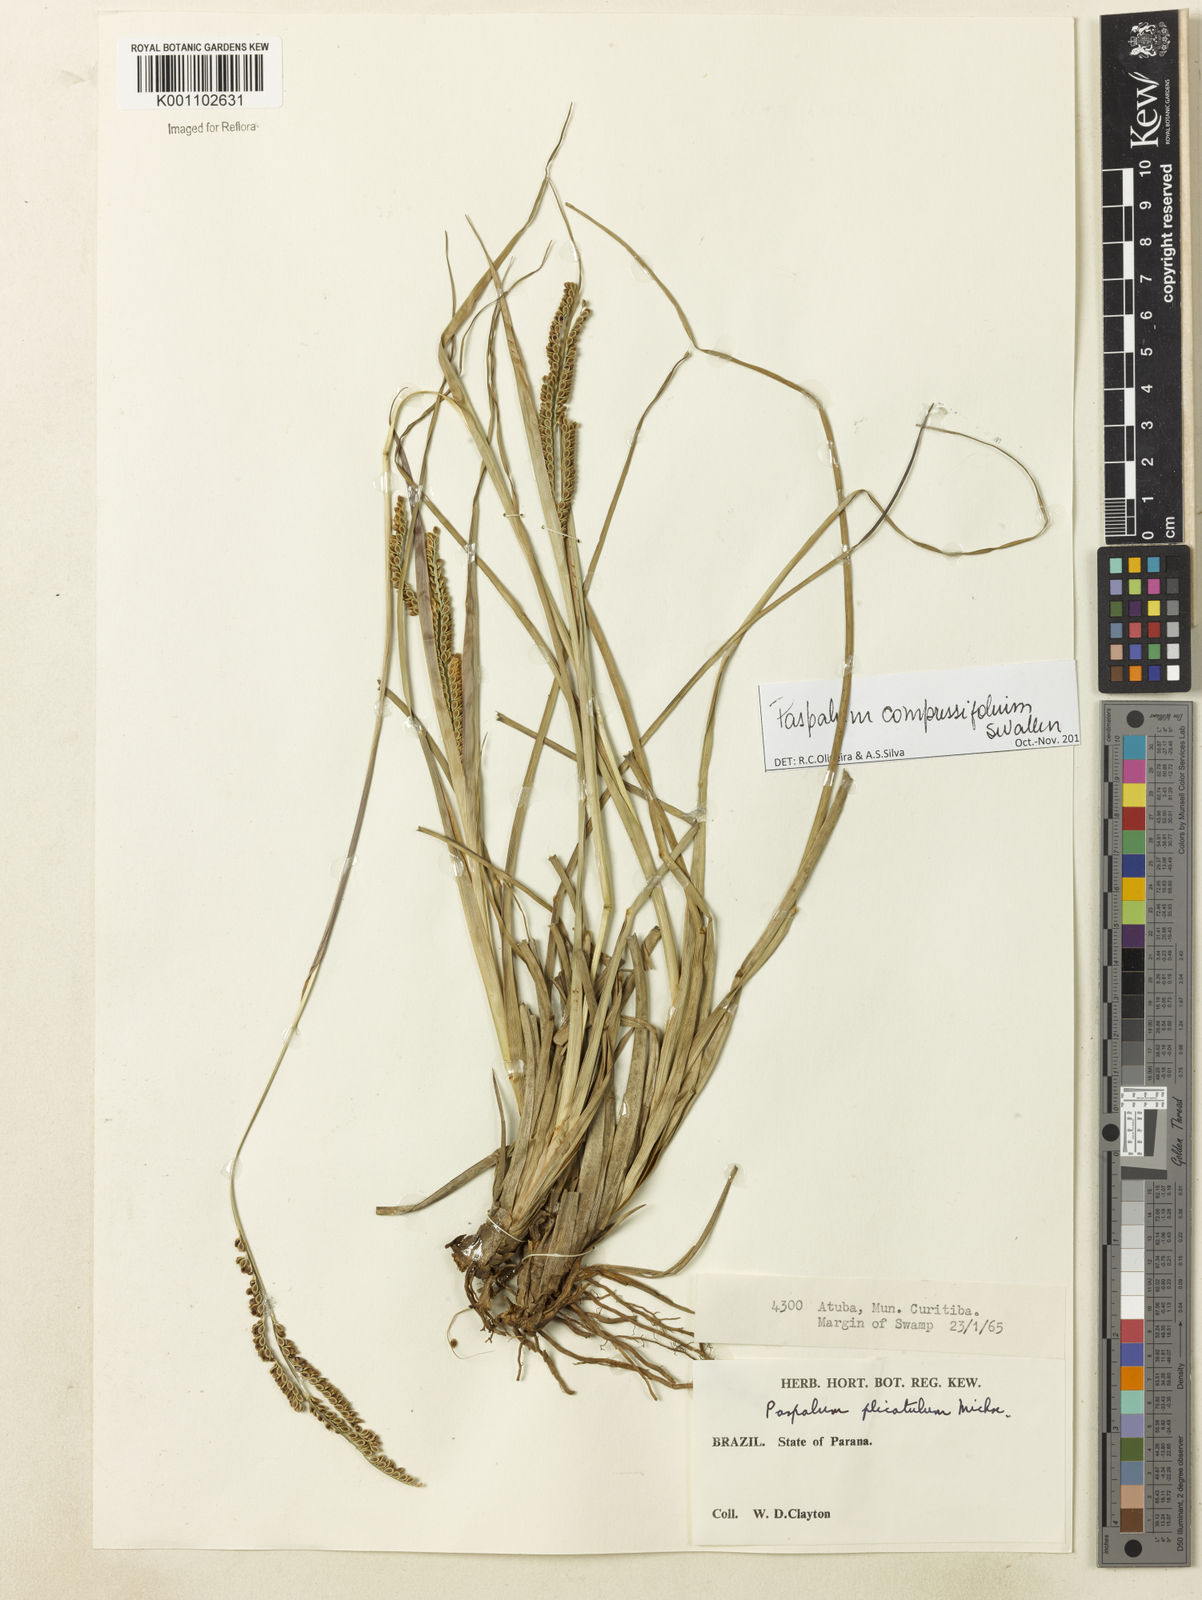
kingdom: Plantae
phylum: Tracheophyta
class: Liliopsida
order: Poales
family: Poaceae
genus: Paspalum
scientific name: Paspalum
